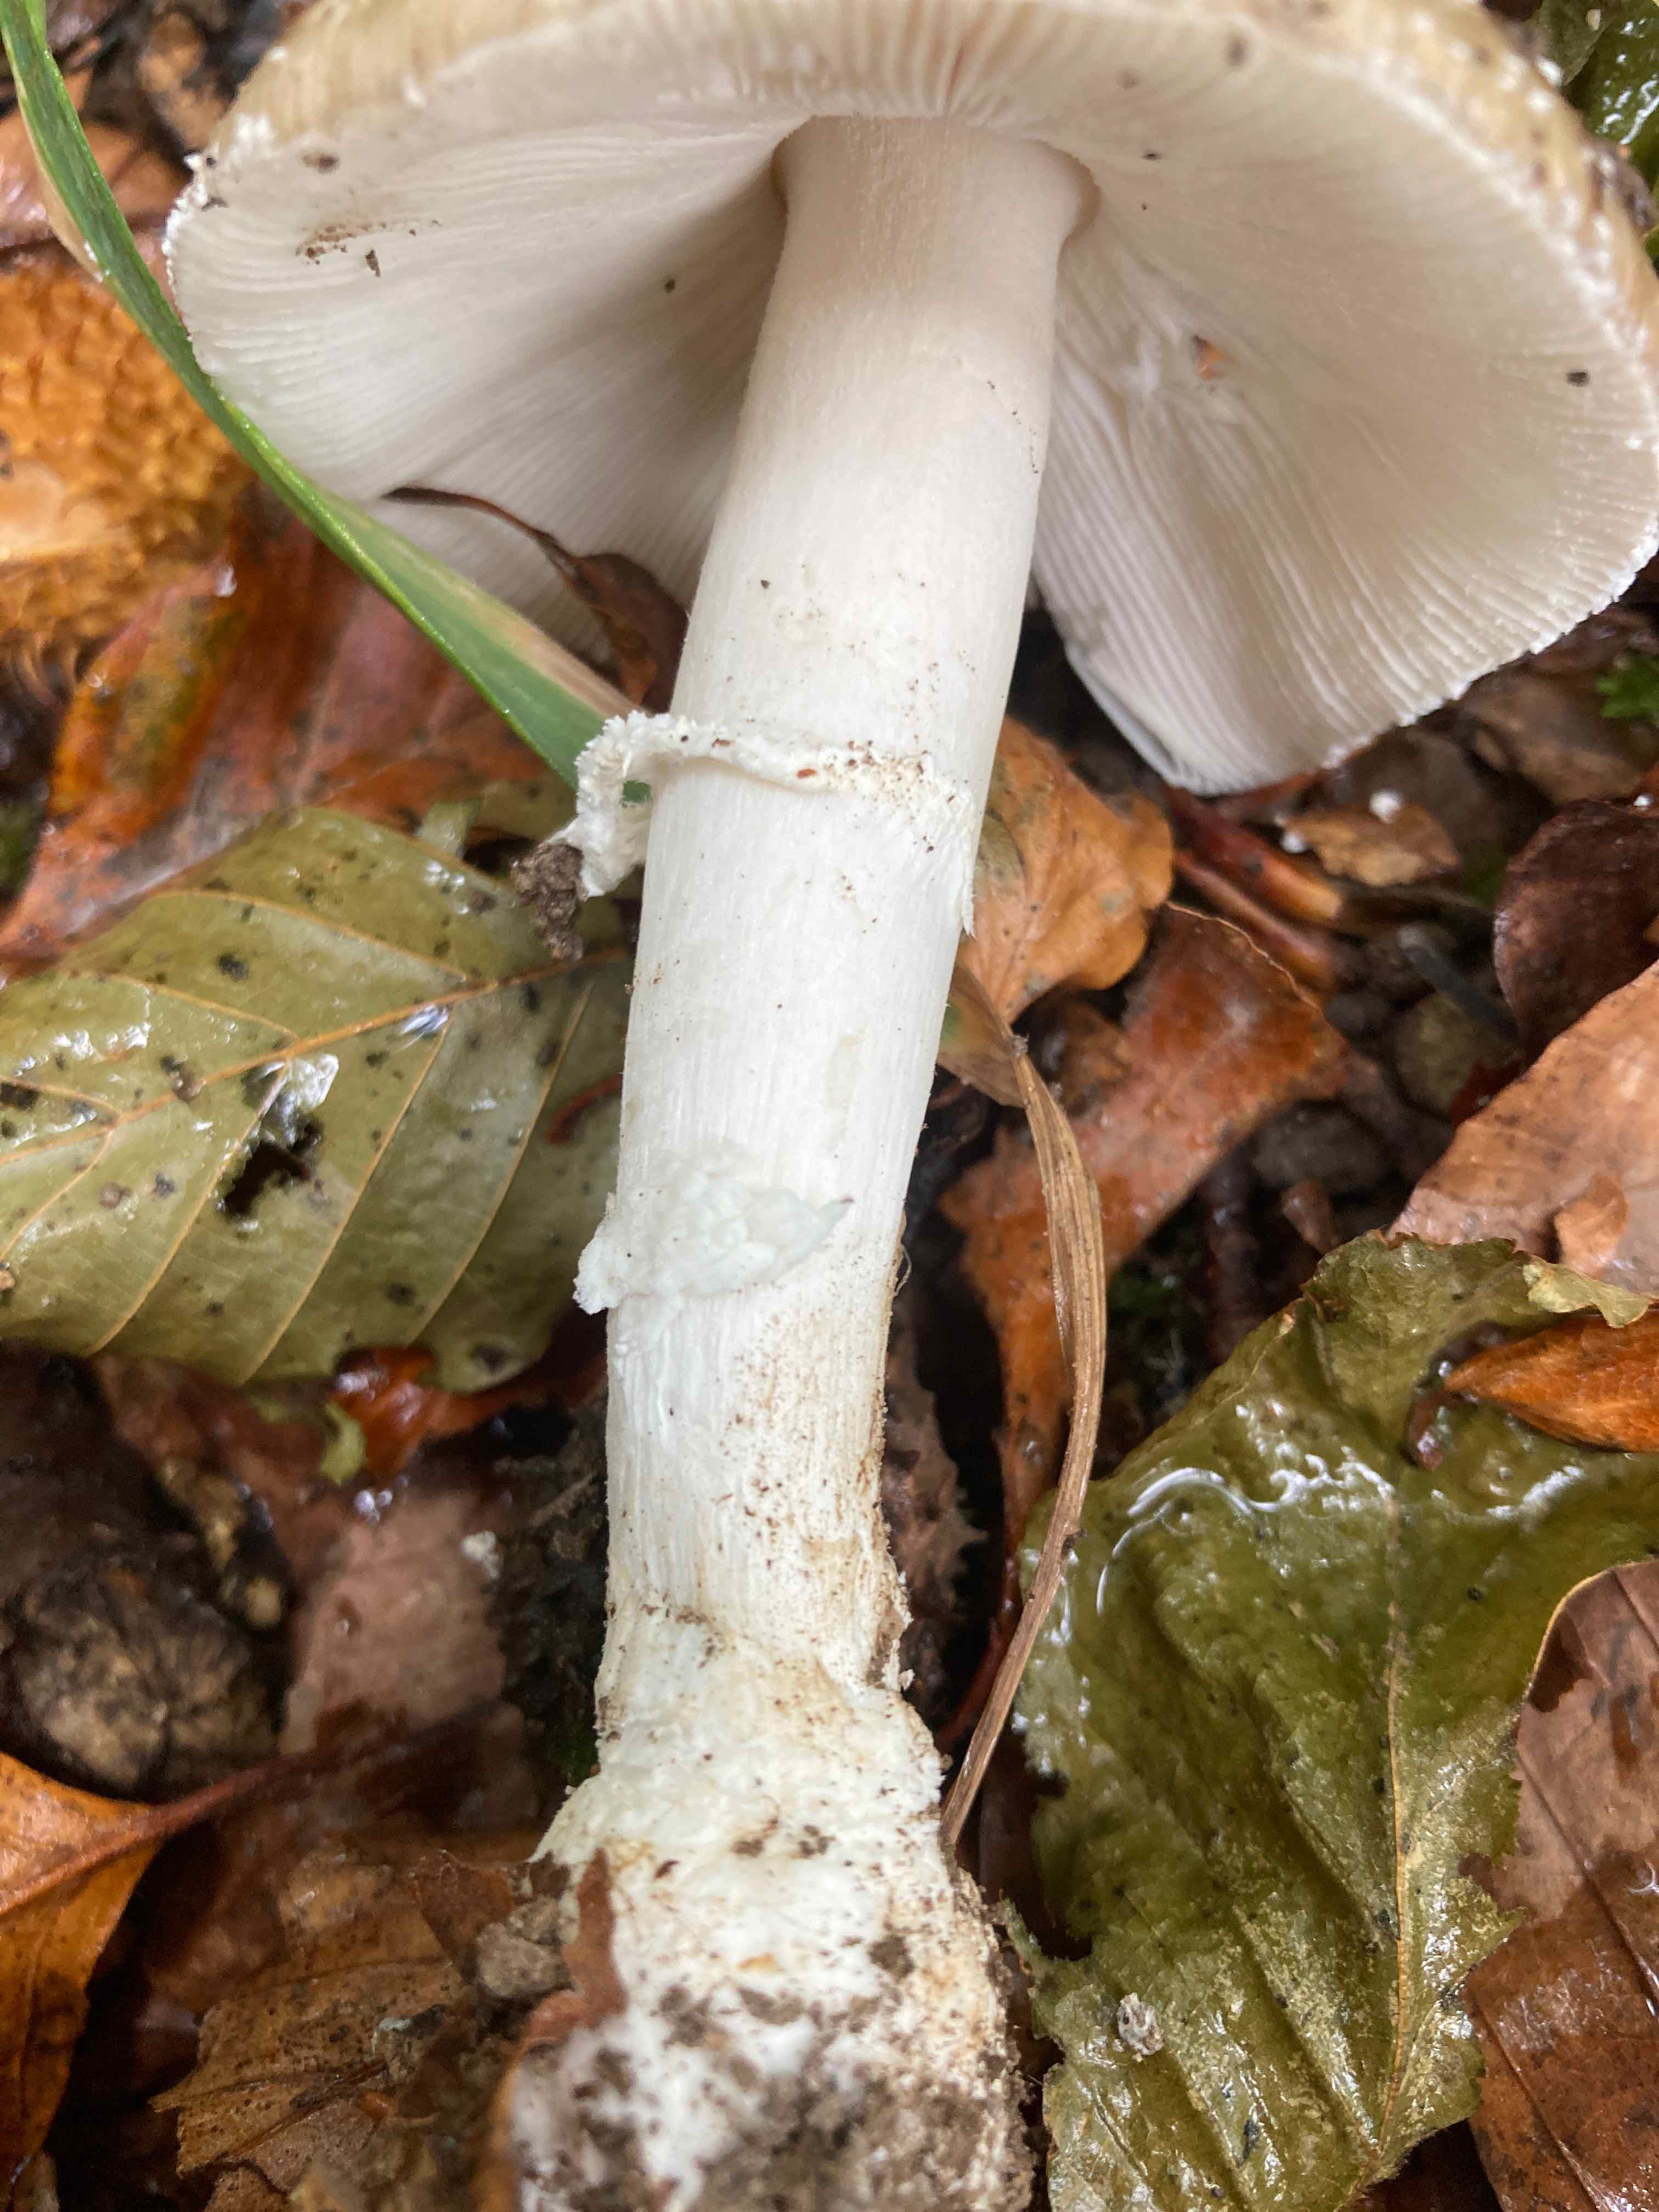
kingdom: Fungi
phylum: Basidiomycota
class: Agaricomycetes
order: Agaricales
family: Amanitaceae
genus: Amanita
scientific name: Amanita pantherina
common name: panter-fluesvamp
